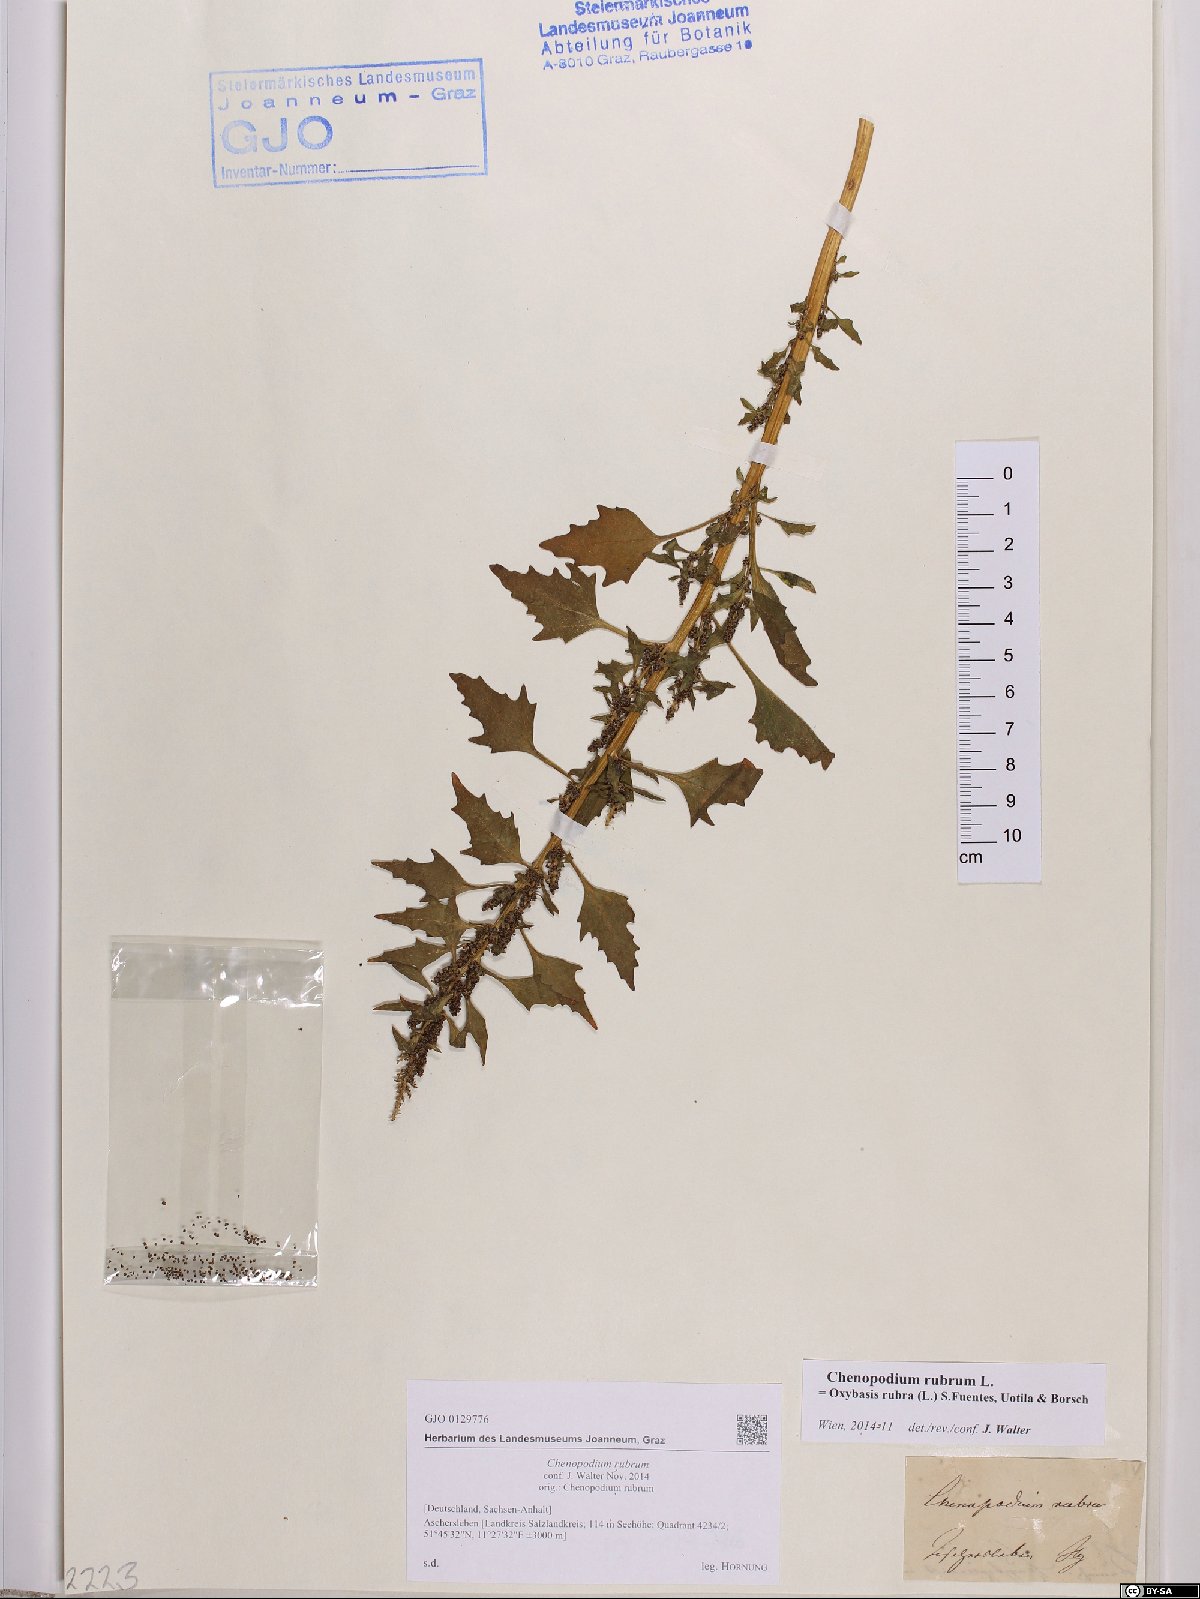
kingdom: Plantae
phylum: Tracheophyta
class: Magnoliopsida
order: Caryophyllales
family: Amaranthaceae
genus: Oxybasis
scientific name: Oxybasis rubra
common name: Red goosefoot
